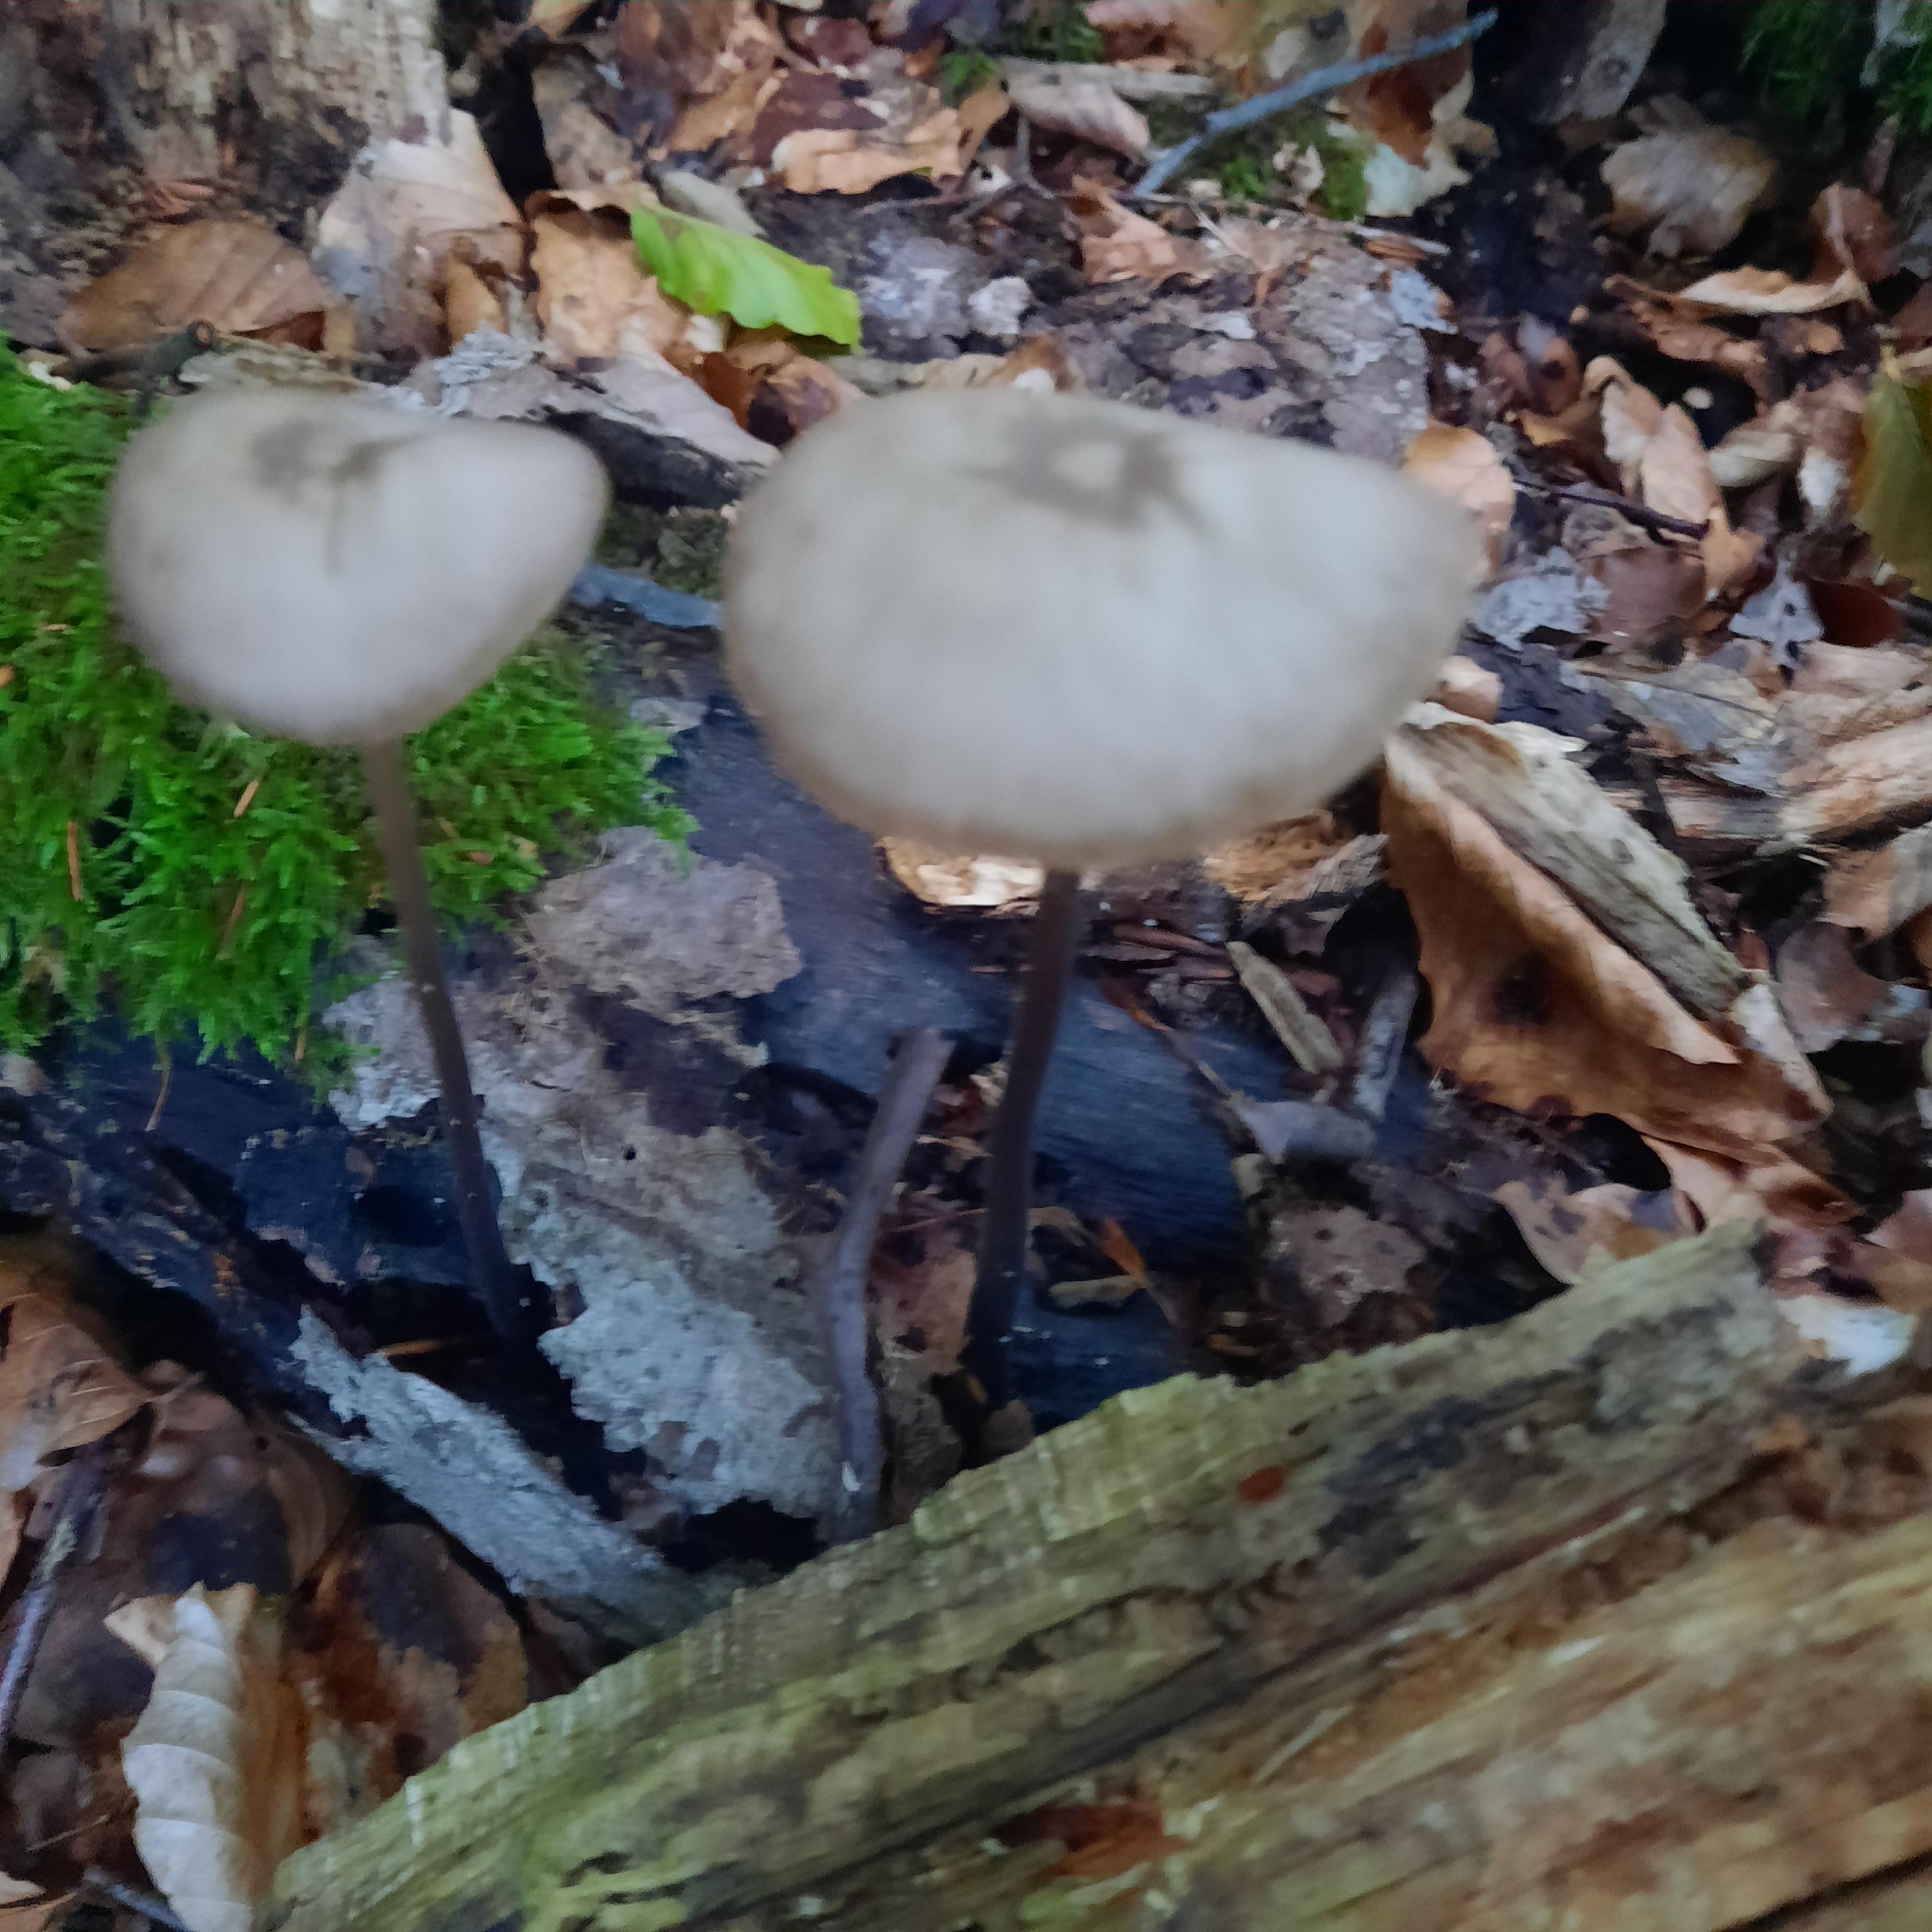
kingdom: Fungi
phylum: Basidiomycota
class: Agaricomycetes
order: Agaricales
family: Omphalotaceae
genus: Mycetinis
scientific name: Mycetinis alliaceus
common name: stor løghat
